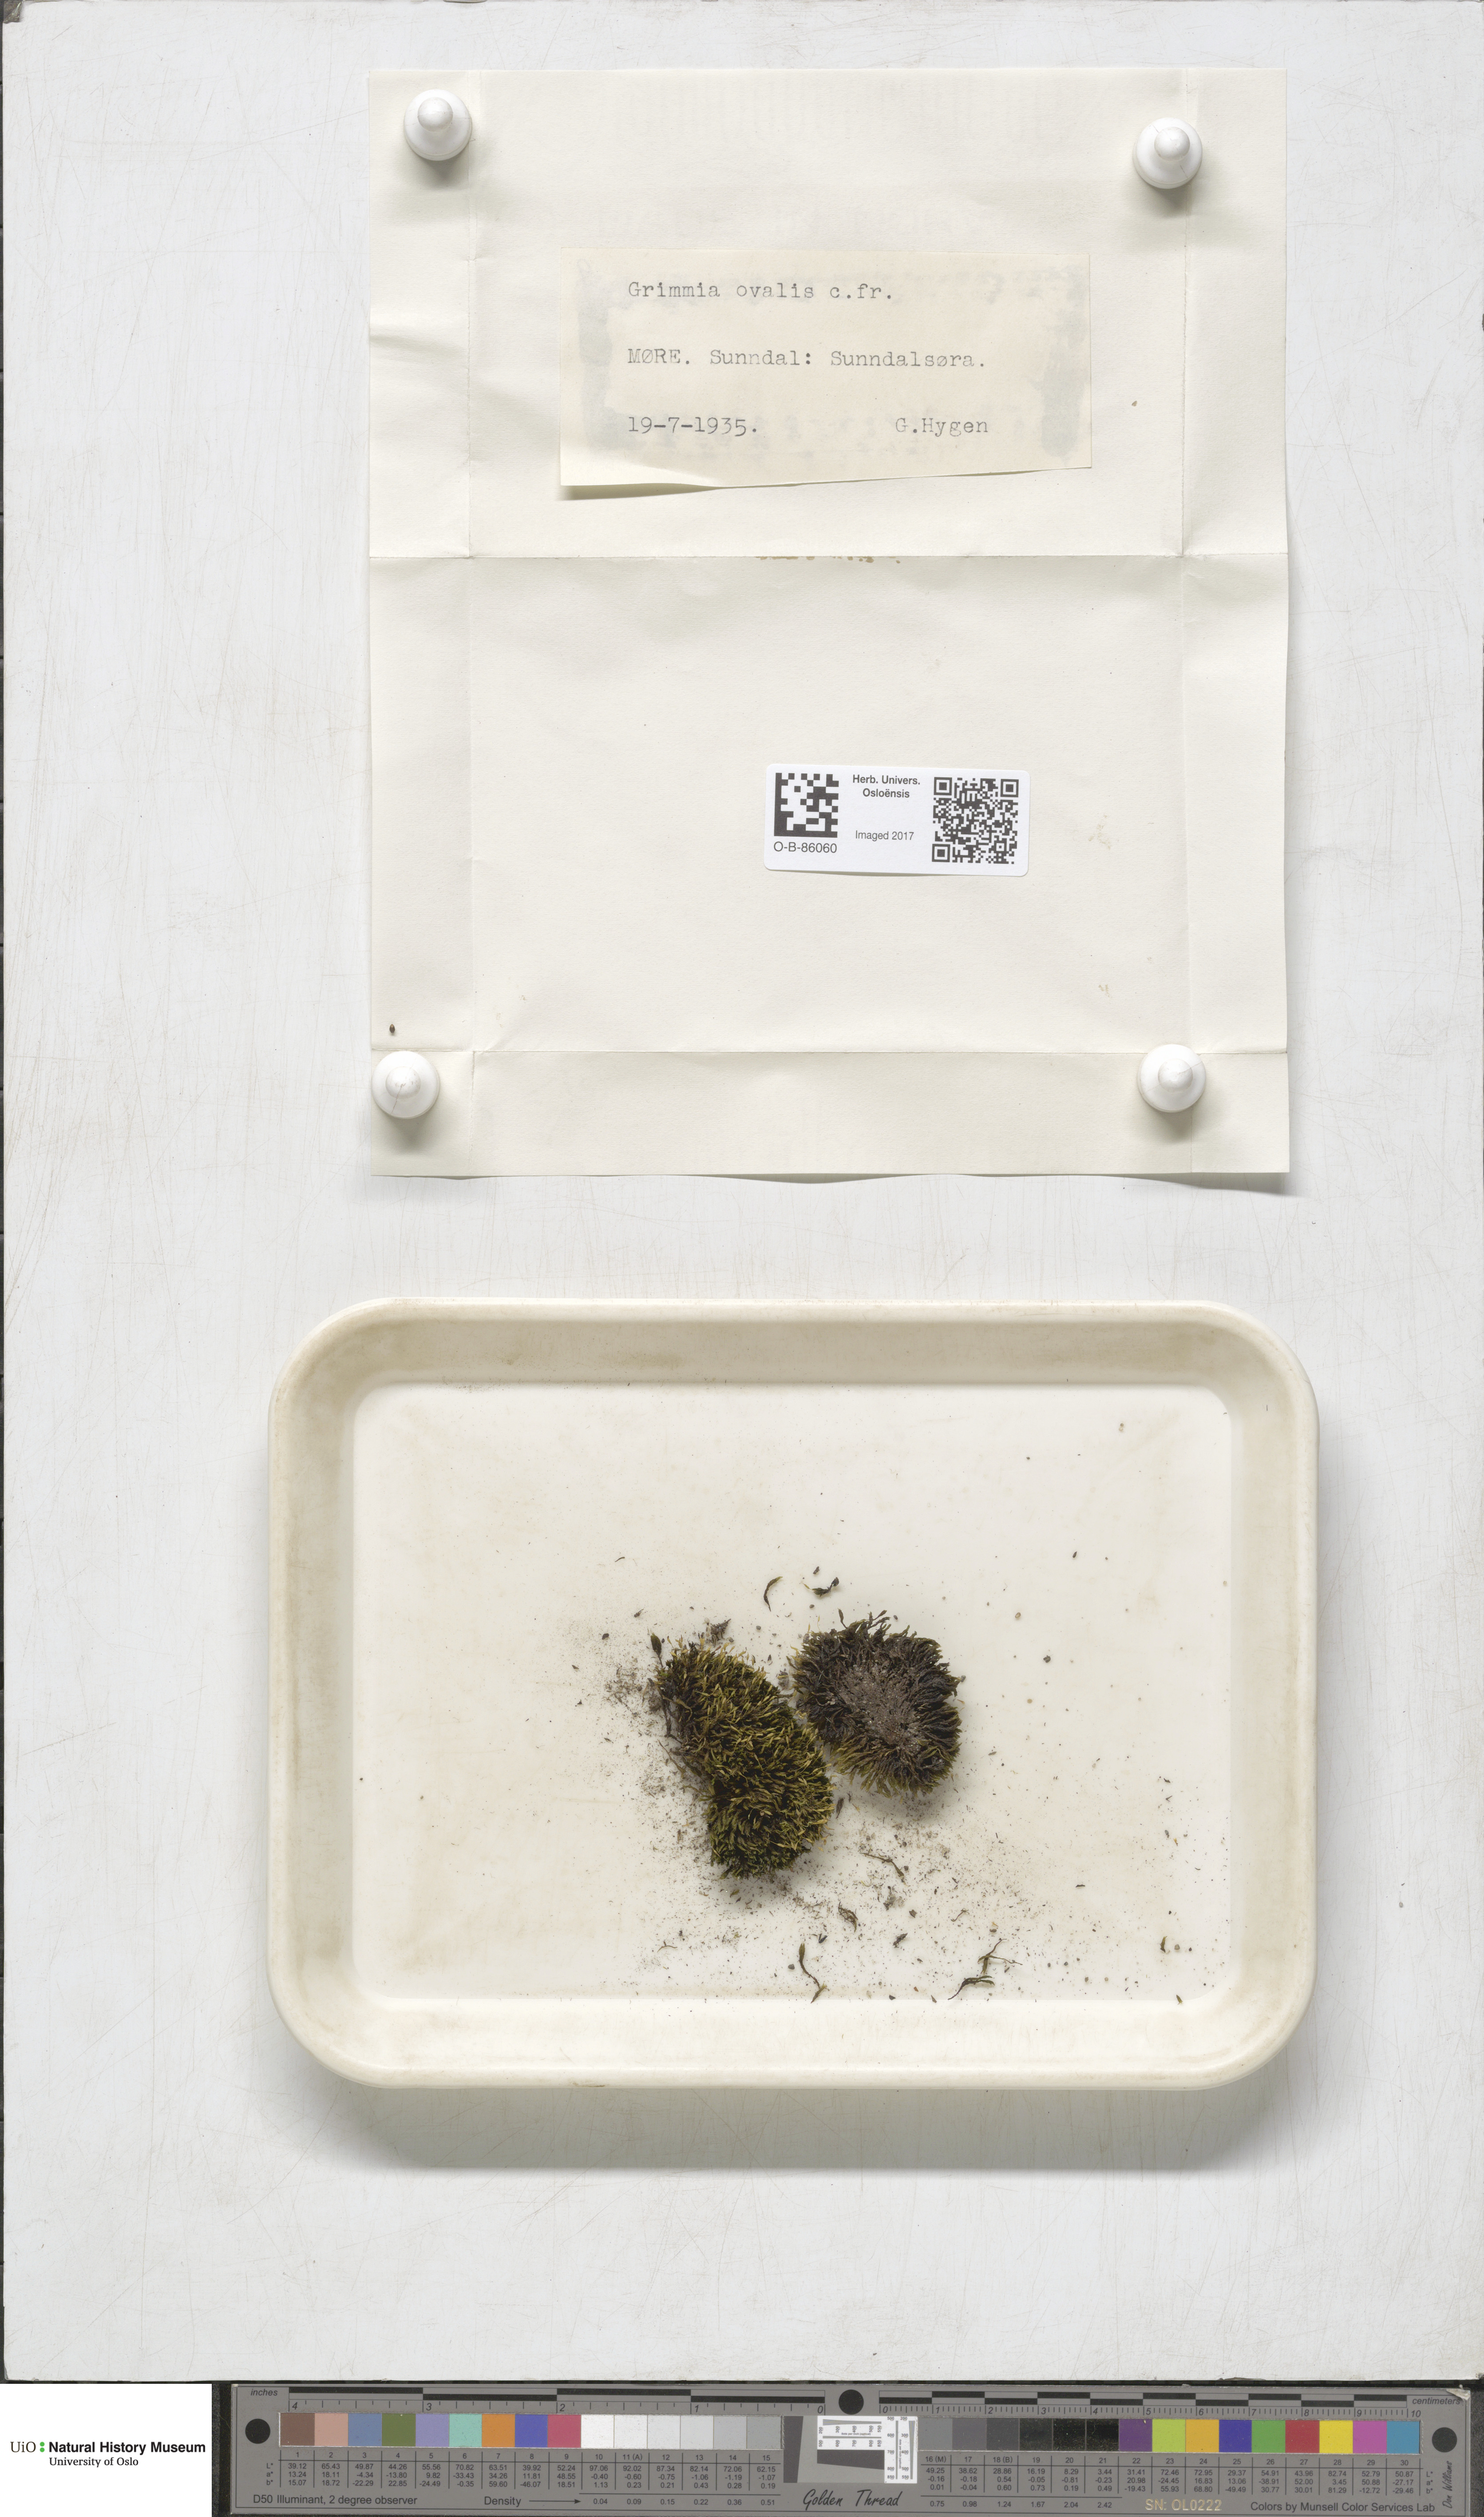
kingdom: Plantae
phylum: Bryophyta
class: Bryopsida
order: Grimmiales
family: Grimmiaceae
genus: Grimmia
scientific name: Grimmia ovalis
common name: Oval grimmia
